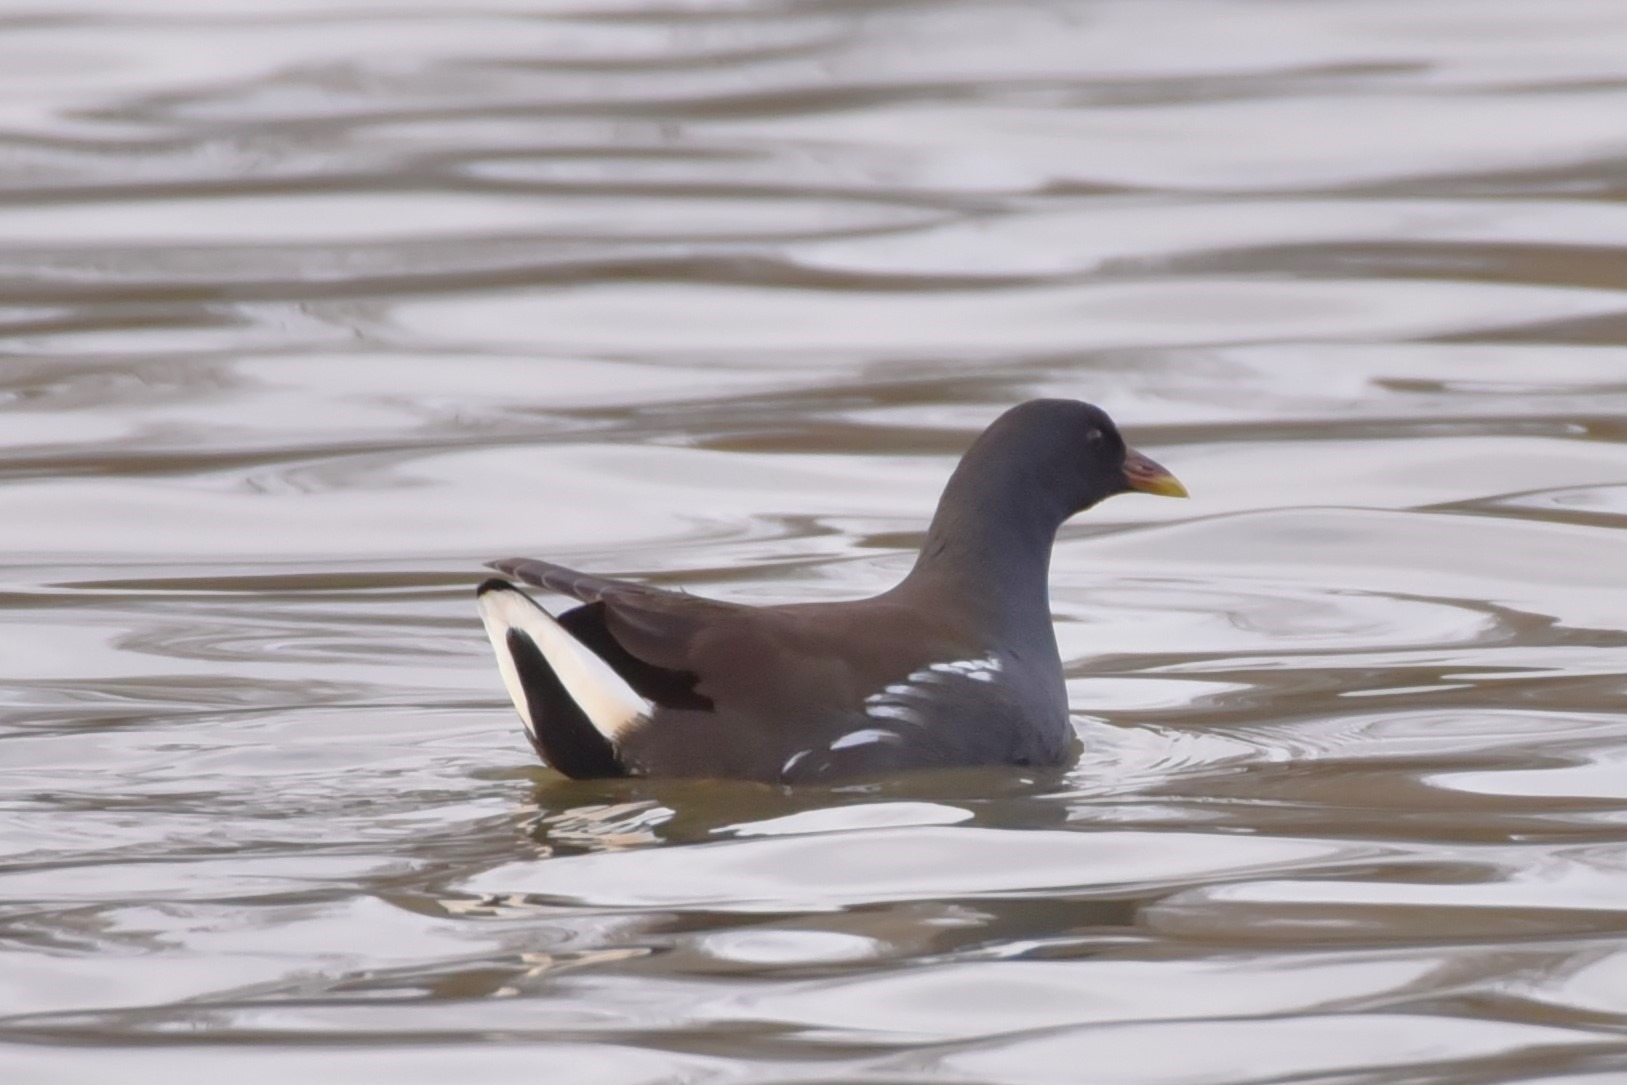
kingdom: Animalia
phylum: Chordata
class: Aves
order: Gruiformes
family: Rallidae
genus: Gallinula
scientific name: Gallinula chloropus
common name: Grønbenet rørhøne
